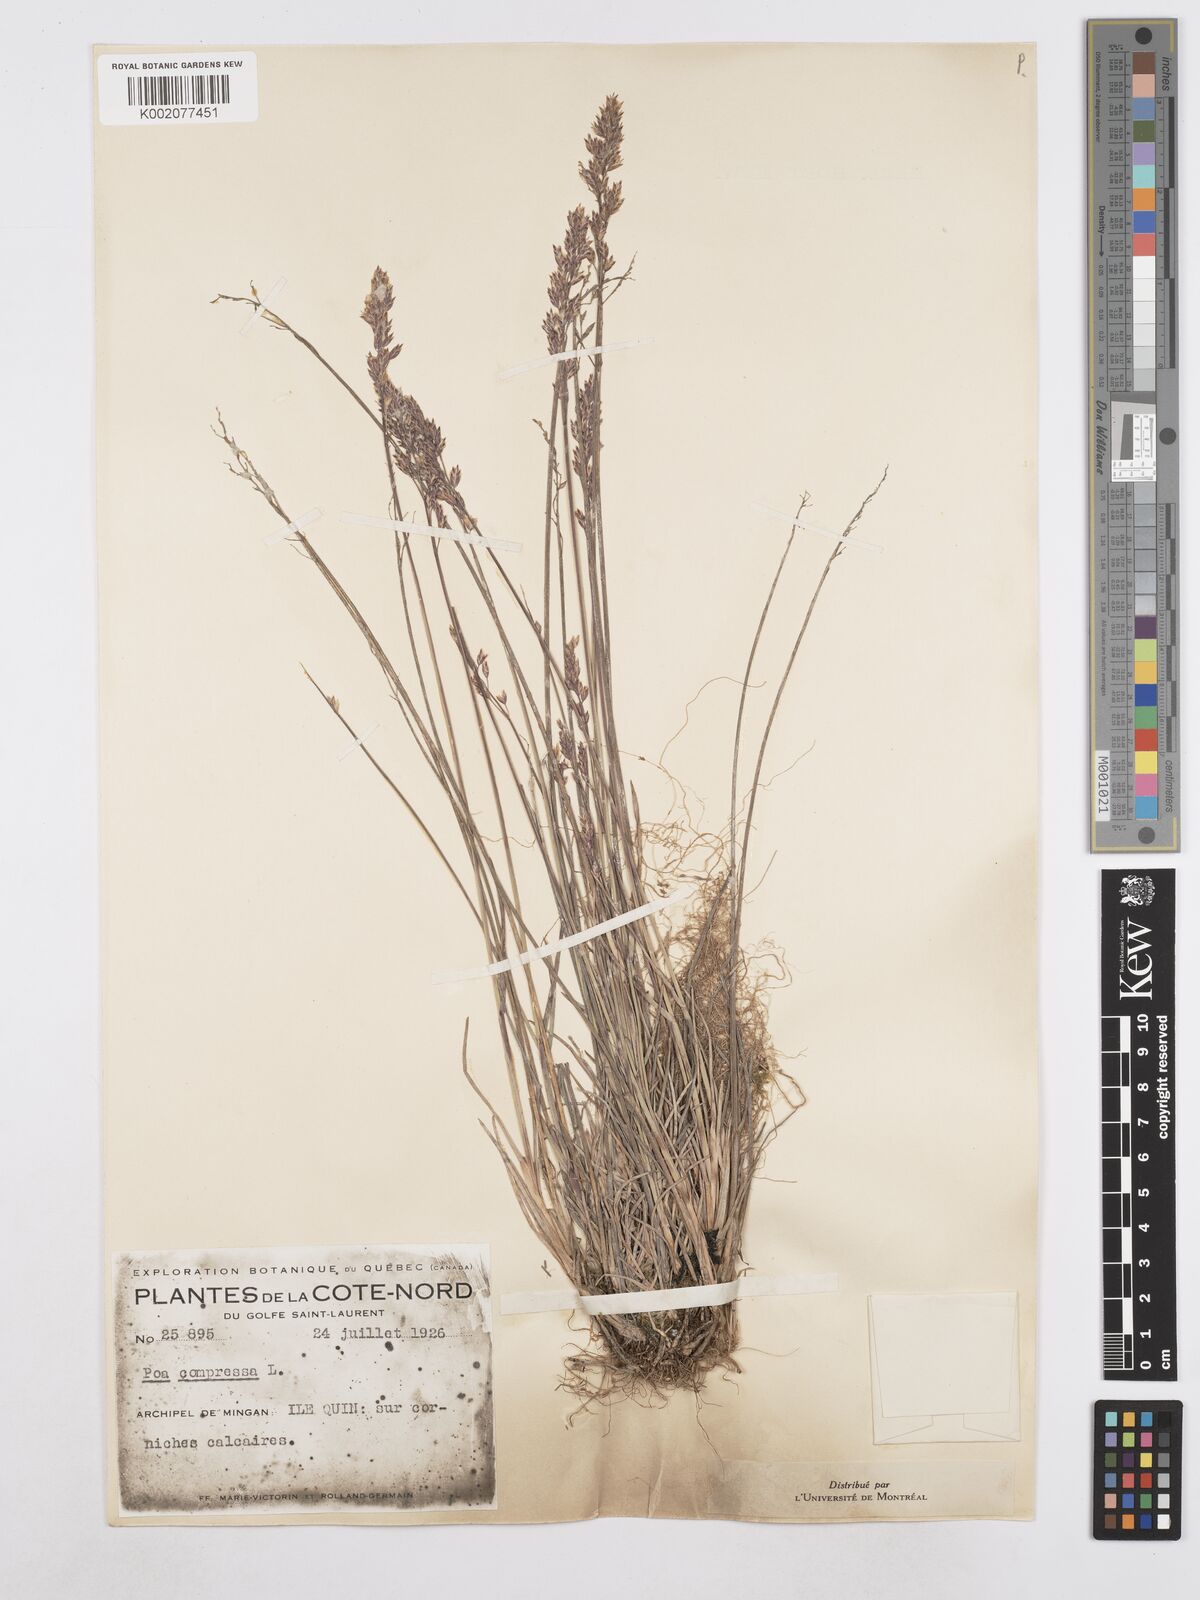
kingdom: Plantae
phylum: Tracheophyta
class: Liliopsida
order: Poales
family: Poaceae
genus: Poa
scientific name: Poa compressa
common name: Canada bluegrass
